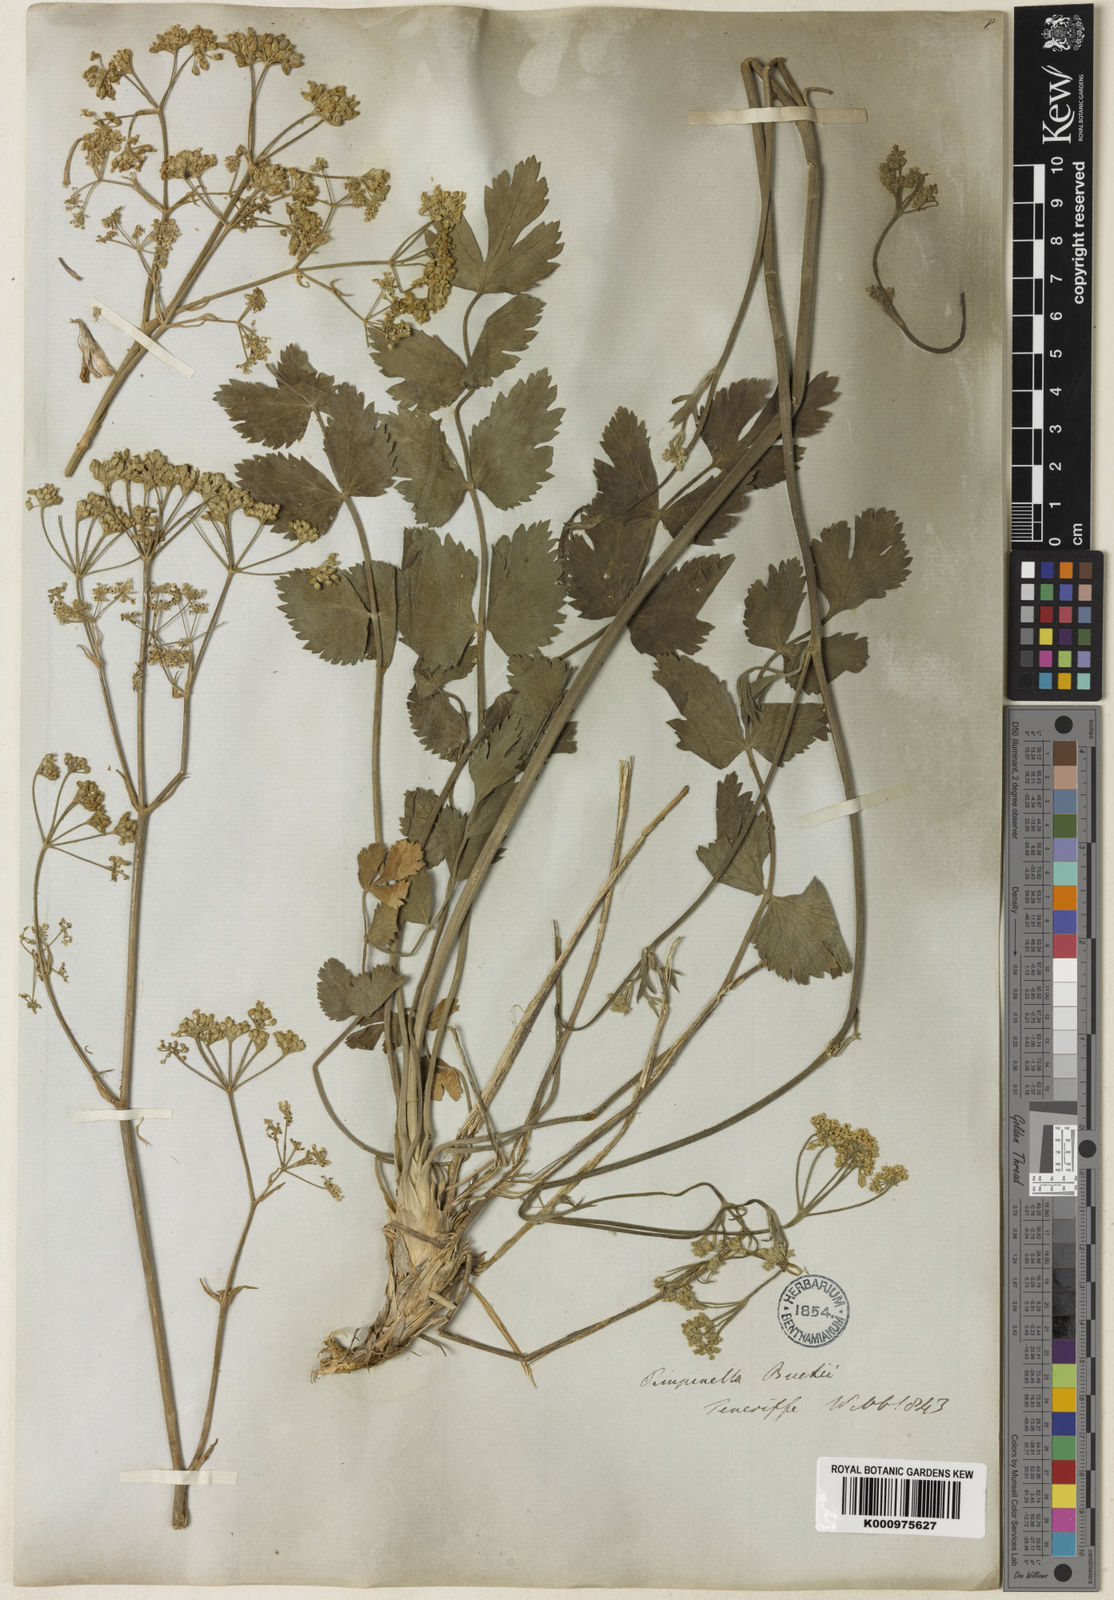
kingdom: Plantae
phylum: Tracheophyta
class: Magnoliopsida
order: Apiales
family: Apiaceae
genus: Pimpinella
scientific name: Pimpinella cumbrae
